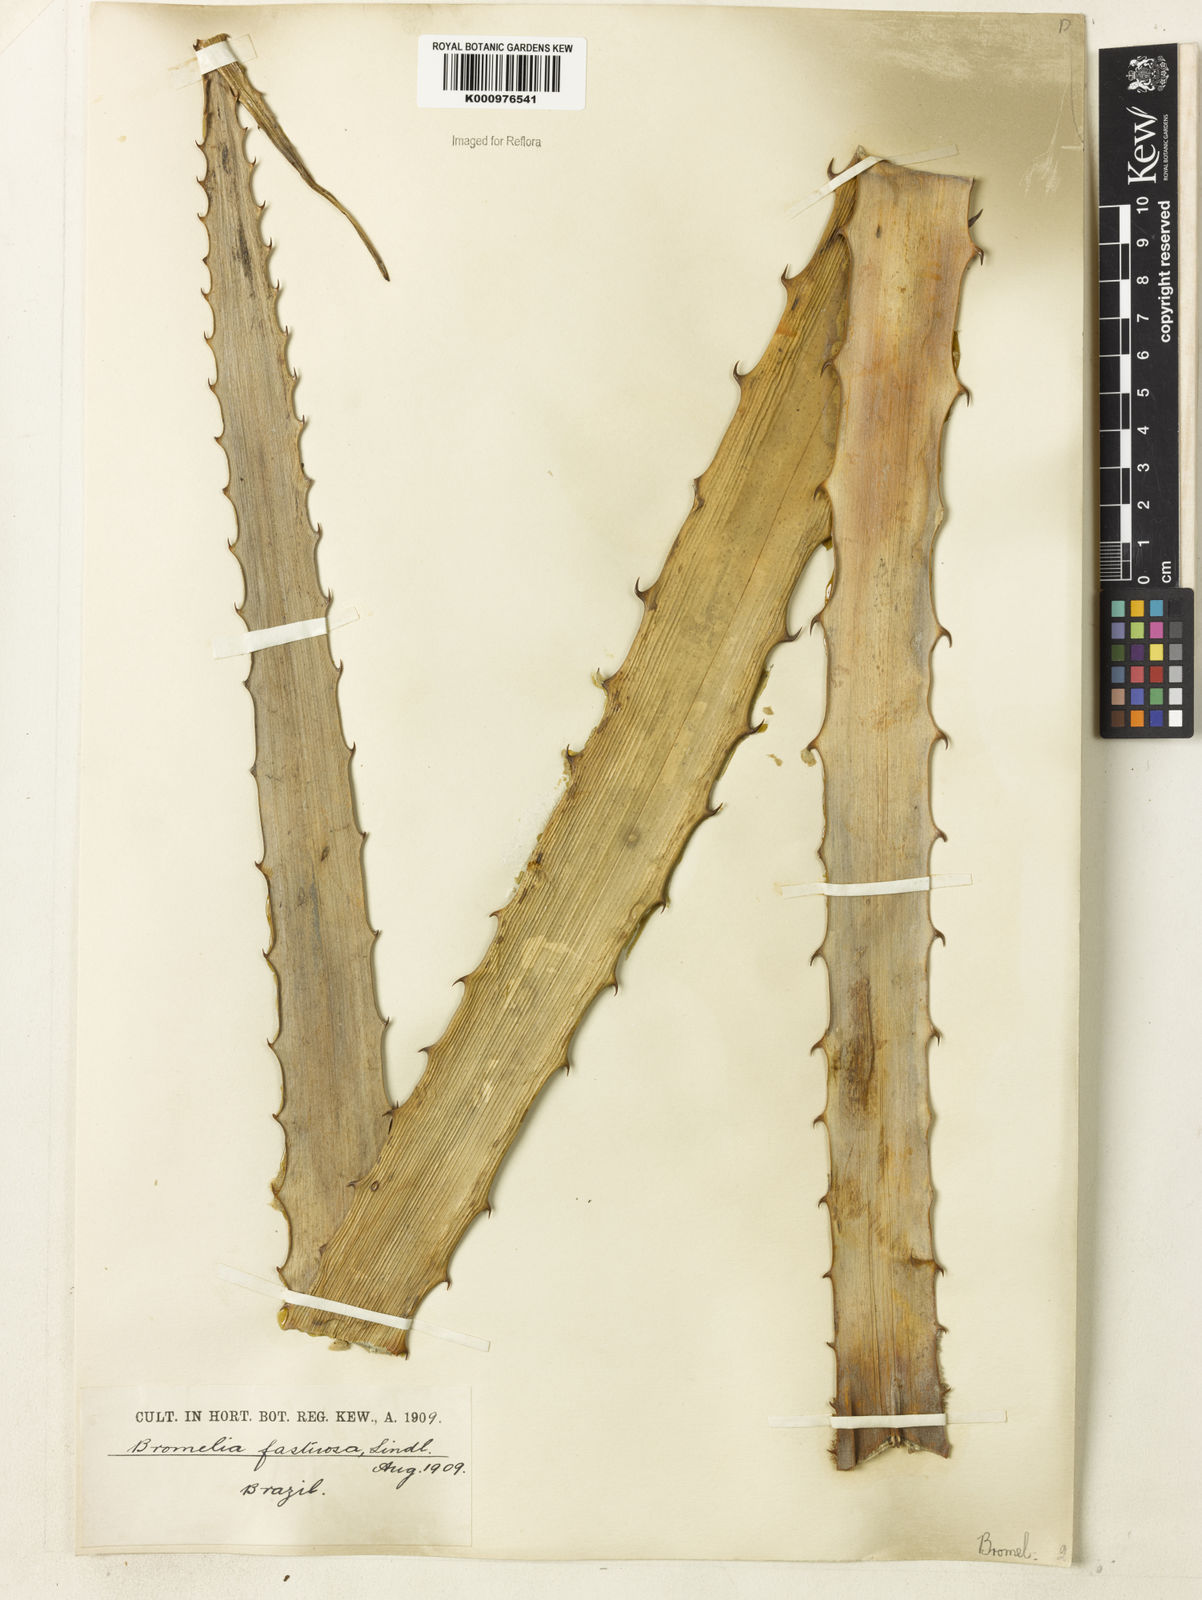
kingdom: Plantae
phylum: Tracheophyta
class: Liliopsida
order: Poales
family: Bromeliaceae
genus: Bromelia
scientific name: Bromelia pinguin
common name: Pinguin
